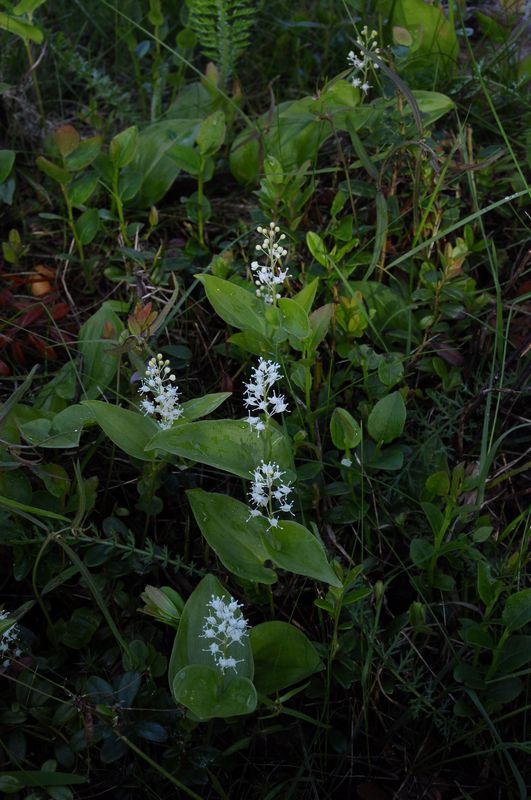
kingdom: Plantae
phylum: Tracheophyta
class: Liliopsida
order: Liliales
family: Liliaceae
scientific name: Liliaceae
